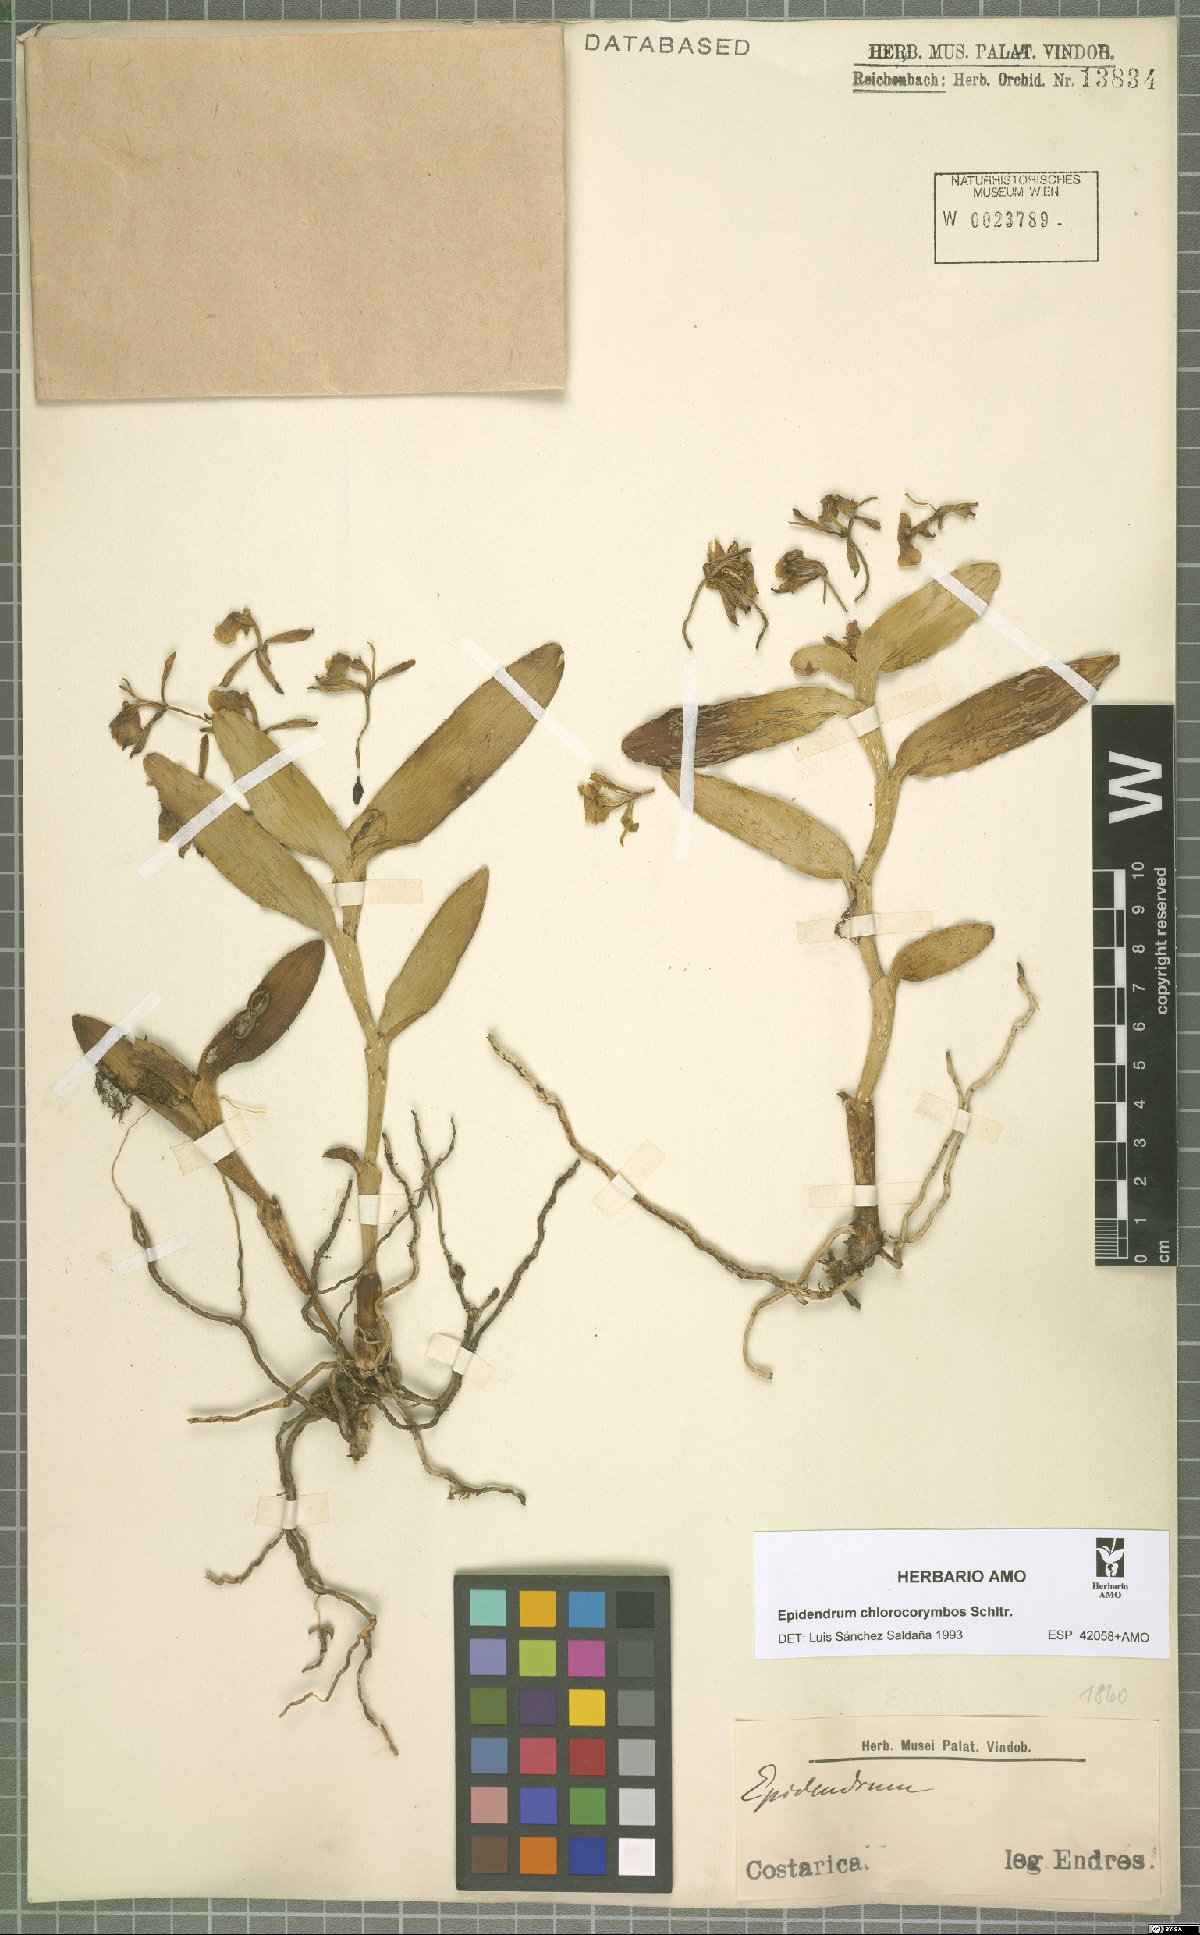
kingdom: Plantae
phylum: Tracheophyta
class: Liliopsida
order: Asparagales
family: Orchidaceae
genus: Epidendrum
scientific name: Epidendrum chlorocorymbos
